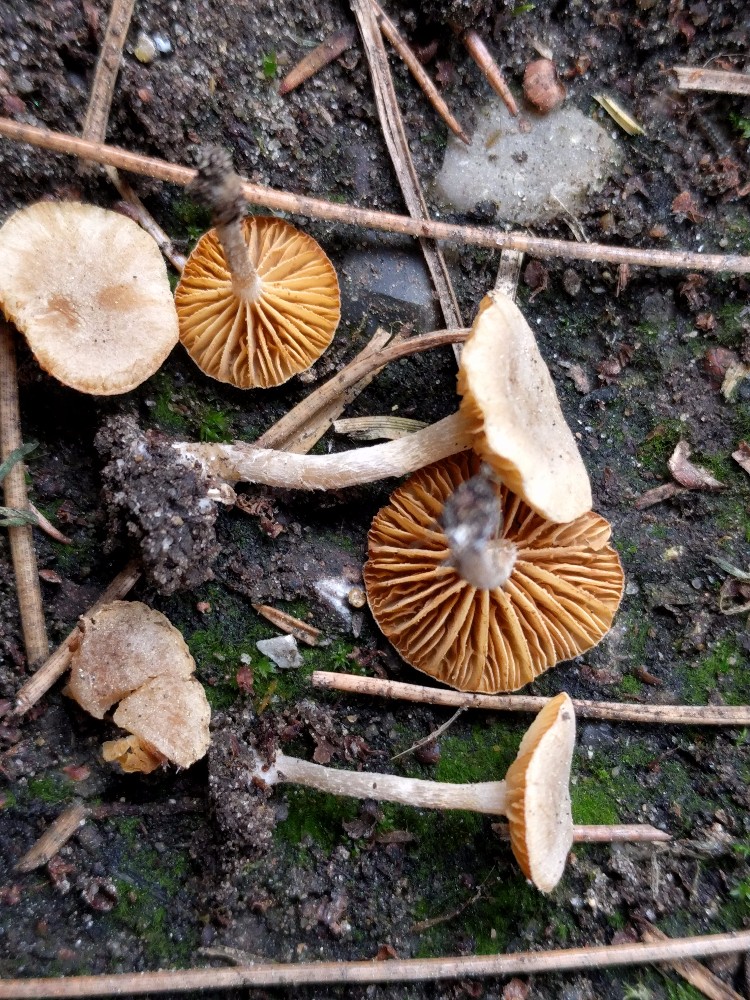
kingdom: Fungi
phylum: Basidiomycota
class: Agaricomycetes
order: Agaricales
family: Tubariaceae
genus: Tubaria
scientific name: Tubaria dispersa
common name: tjørne-fnughat
